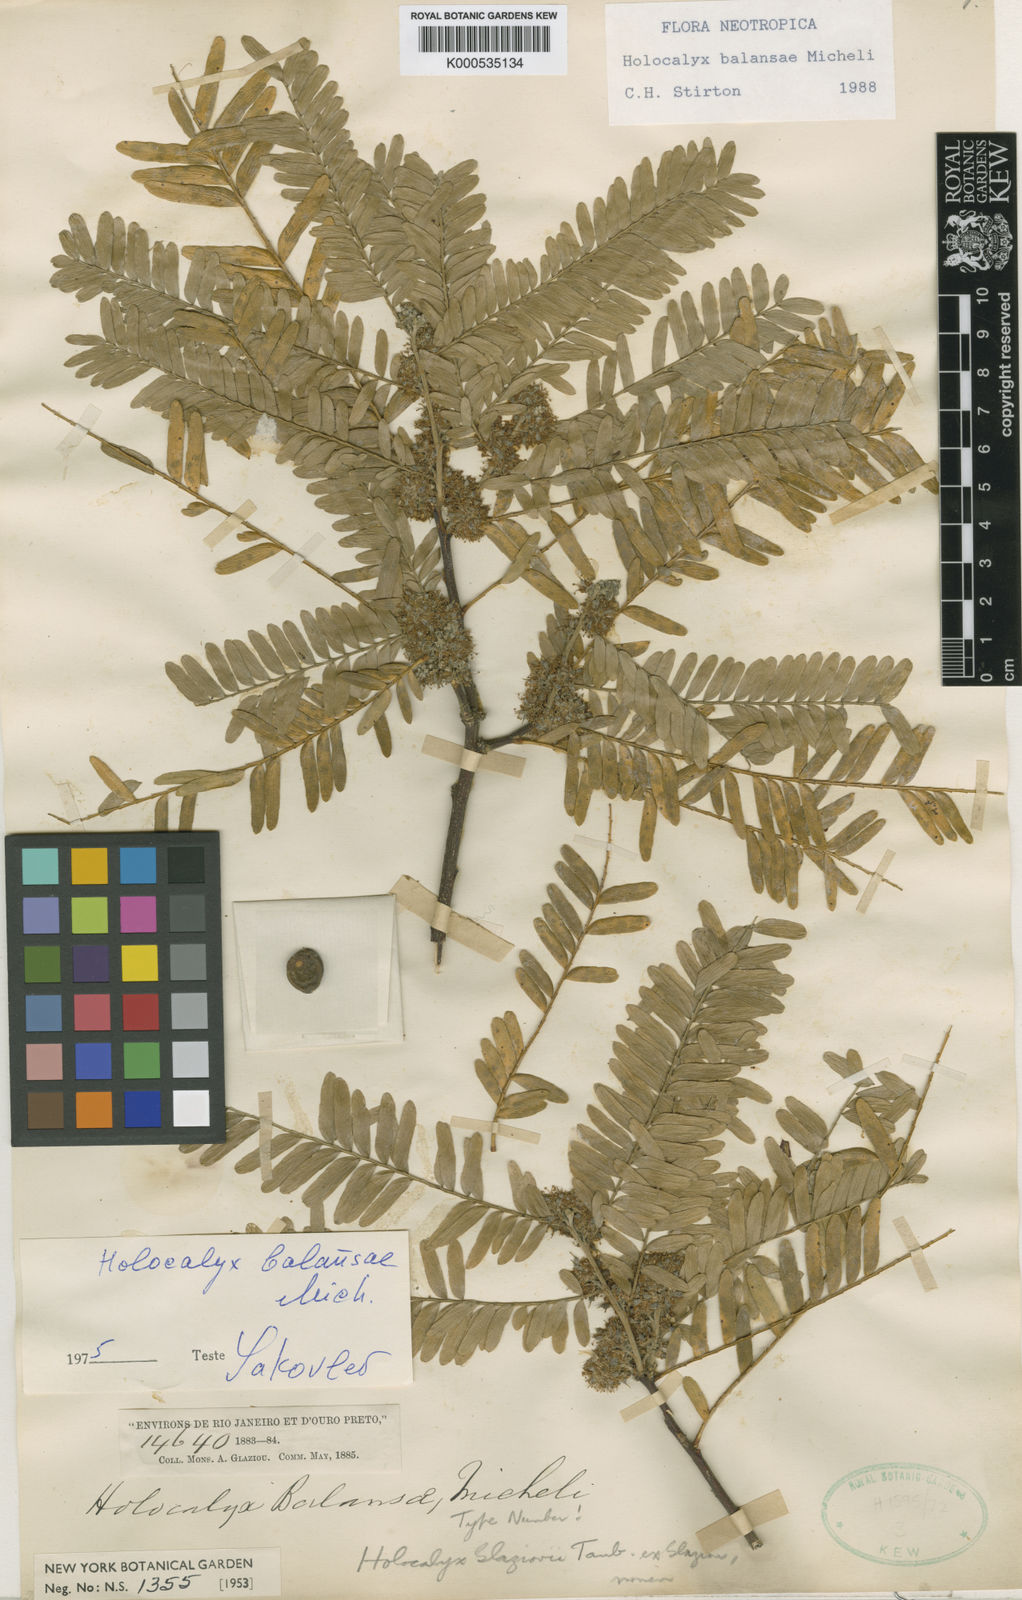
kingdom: Plantae
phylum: Tracheophyta
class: Magnoliopsida
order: Fabales
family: Fabaceae
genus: Holocalyx
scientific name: Holocalyx balansae
